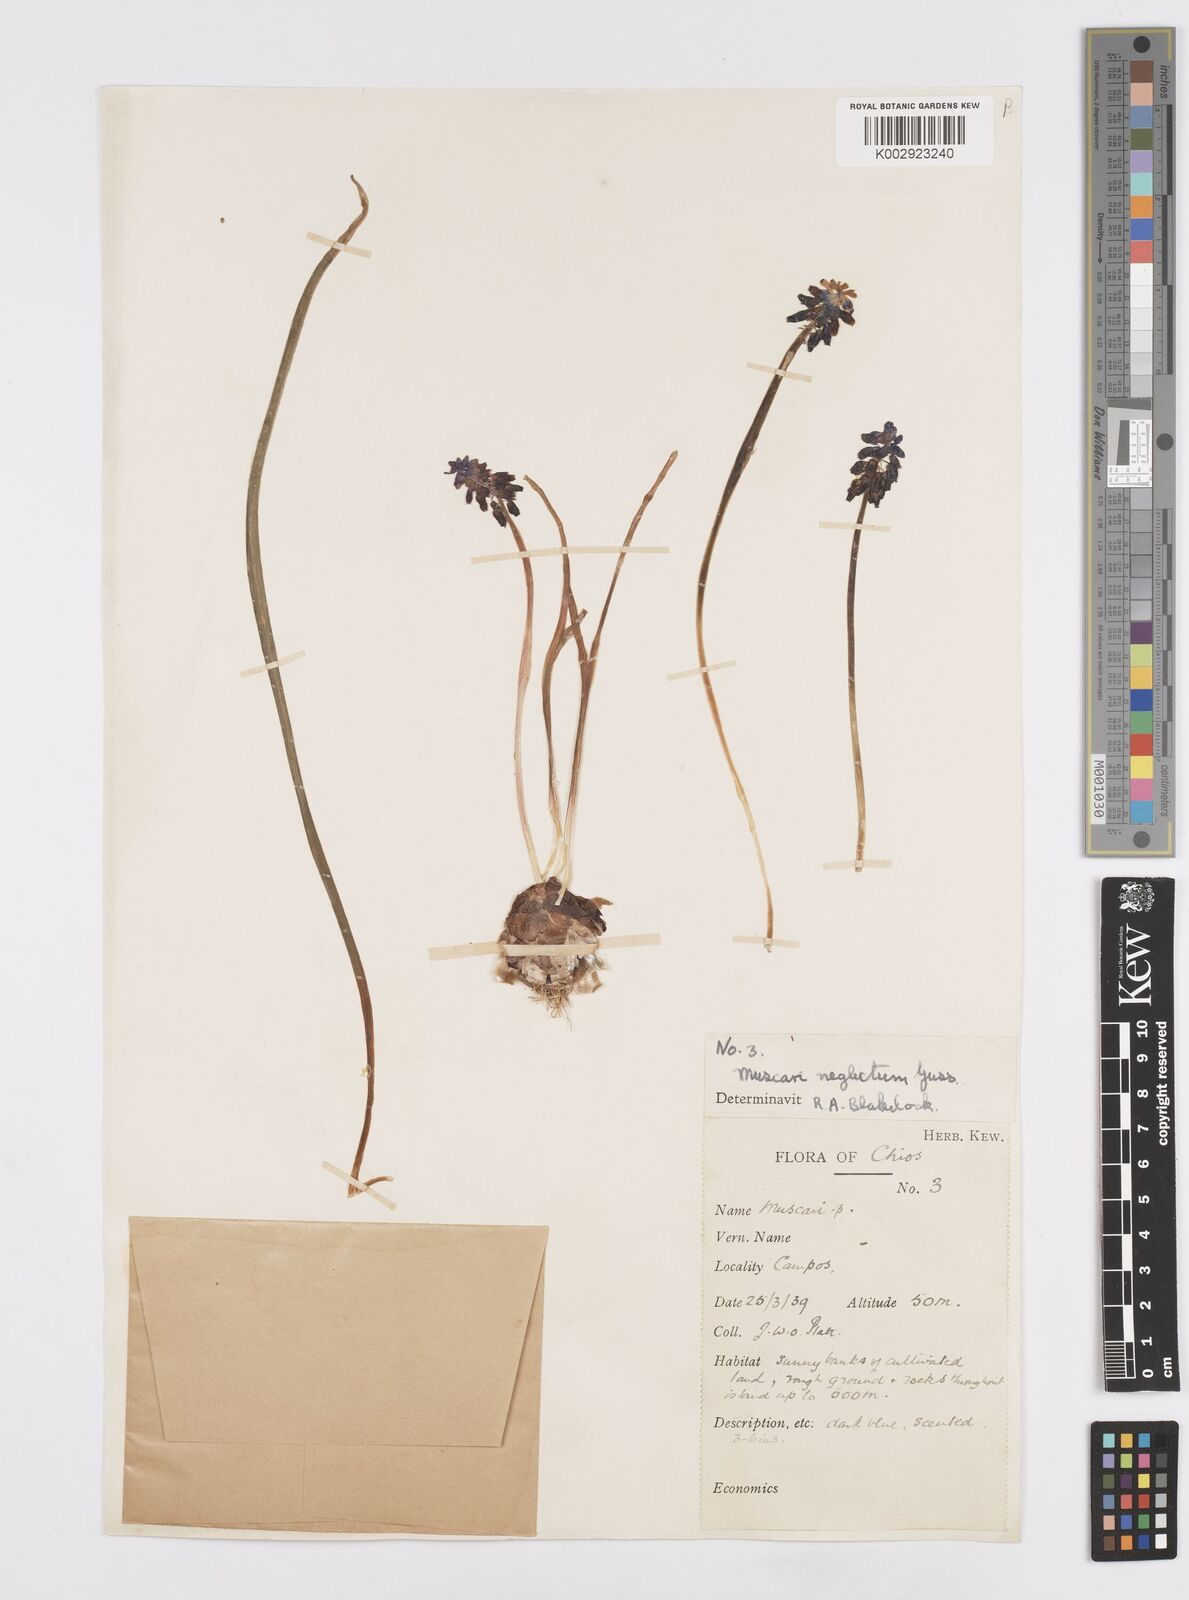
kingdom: Plantae
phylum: Tracheophyta
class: Liliopsida
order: Asparagales
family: Asparagaceae
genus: Muscari
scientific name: Muscari neglectum
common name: Grape-hyacinth
